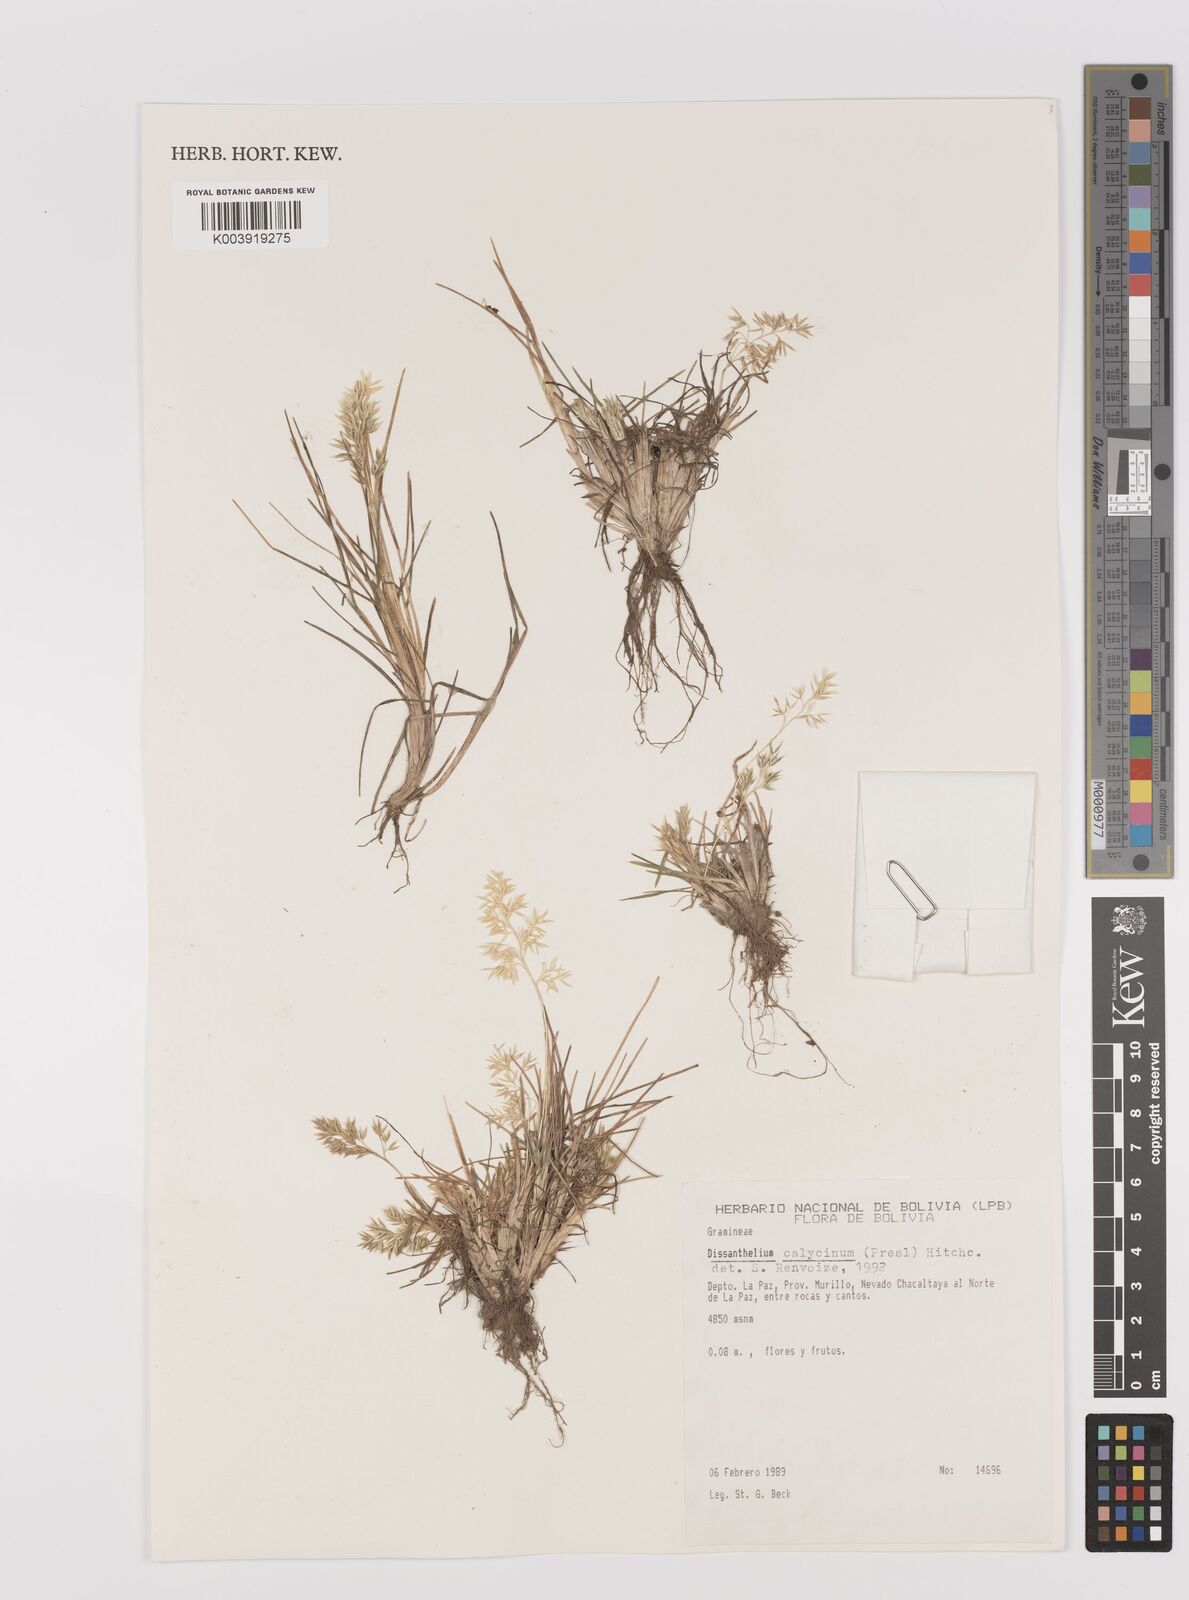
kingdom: Plantae
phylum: Tracheophyta
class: Liliopsida
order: Poales
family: Poaceae
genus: Poa
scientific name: Poa calycina
